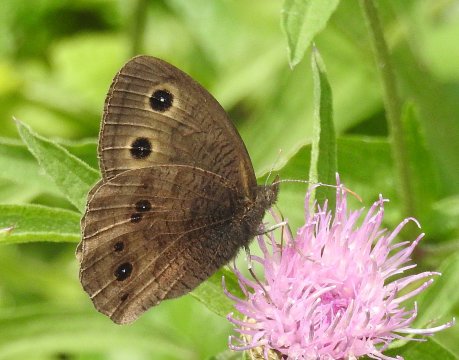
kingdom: Animalia
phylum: Arthropoda
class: Insecta
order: Lepidoptera
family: Nymphalidae
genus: Cercyonis
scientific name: Cercyonis pegala
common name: Common Wood-Nymph
